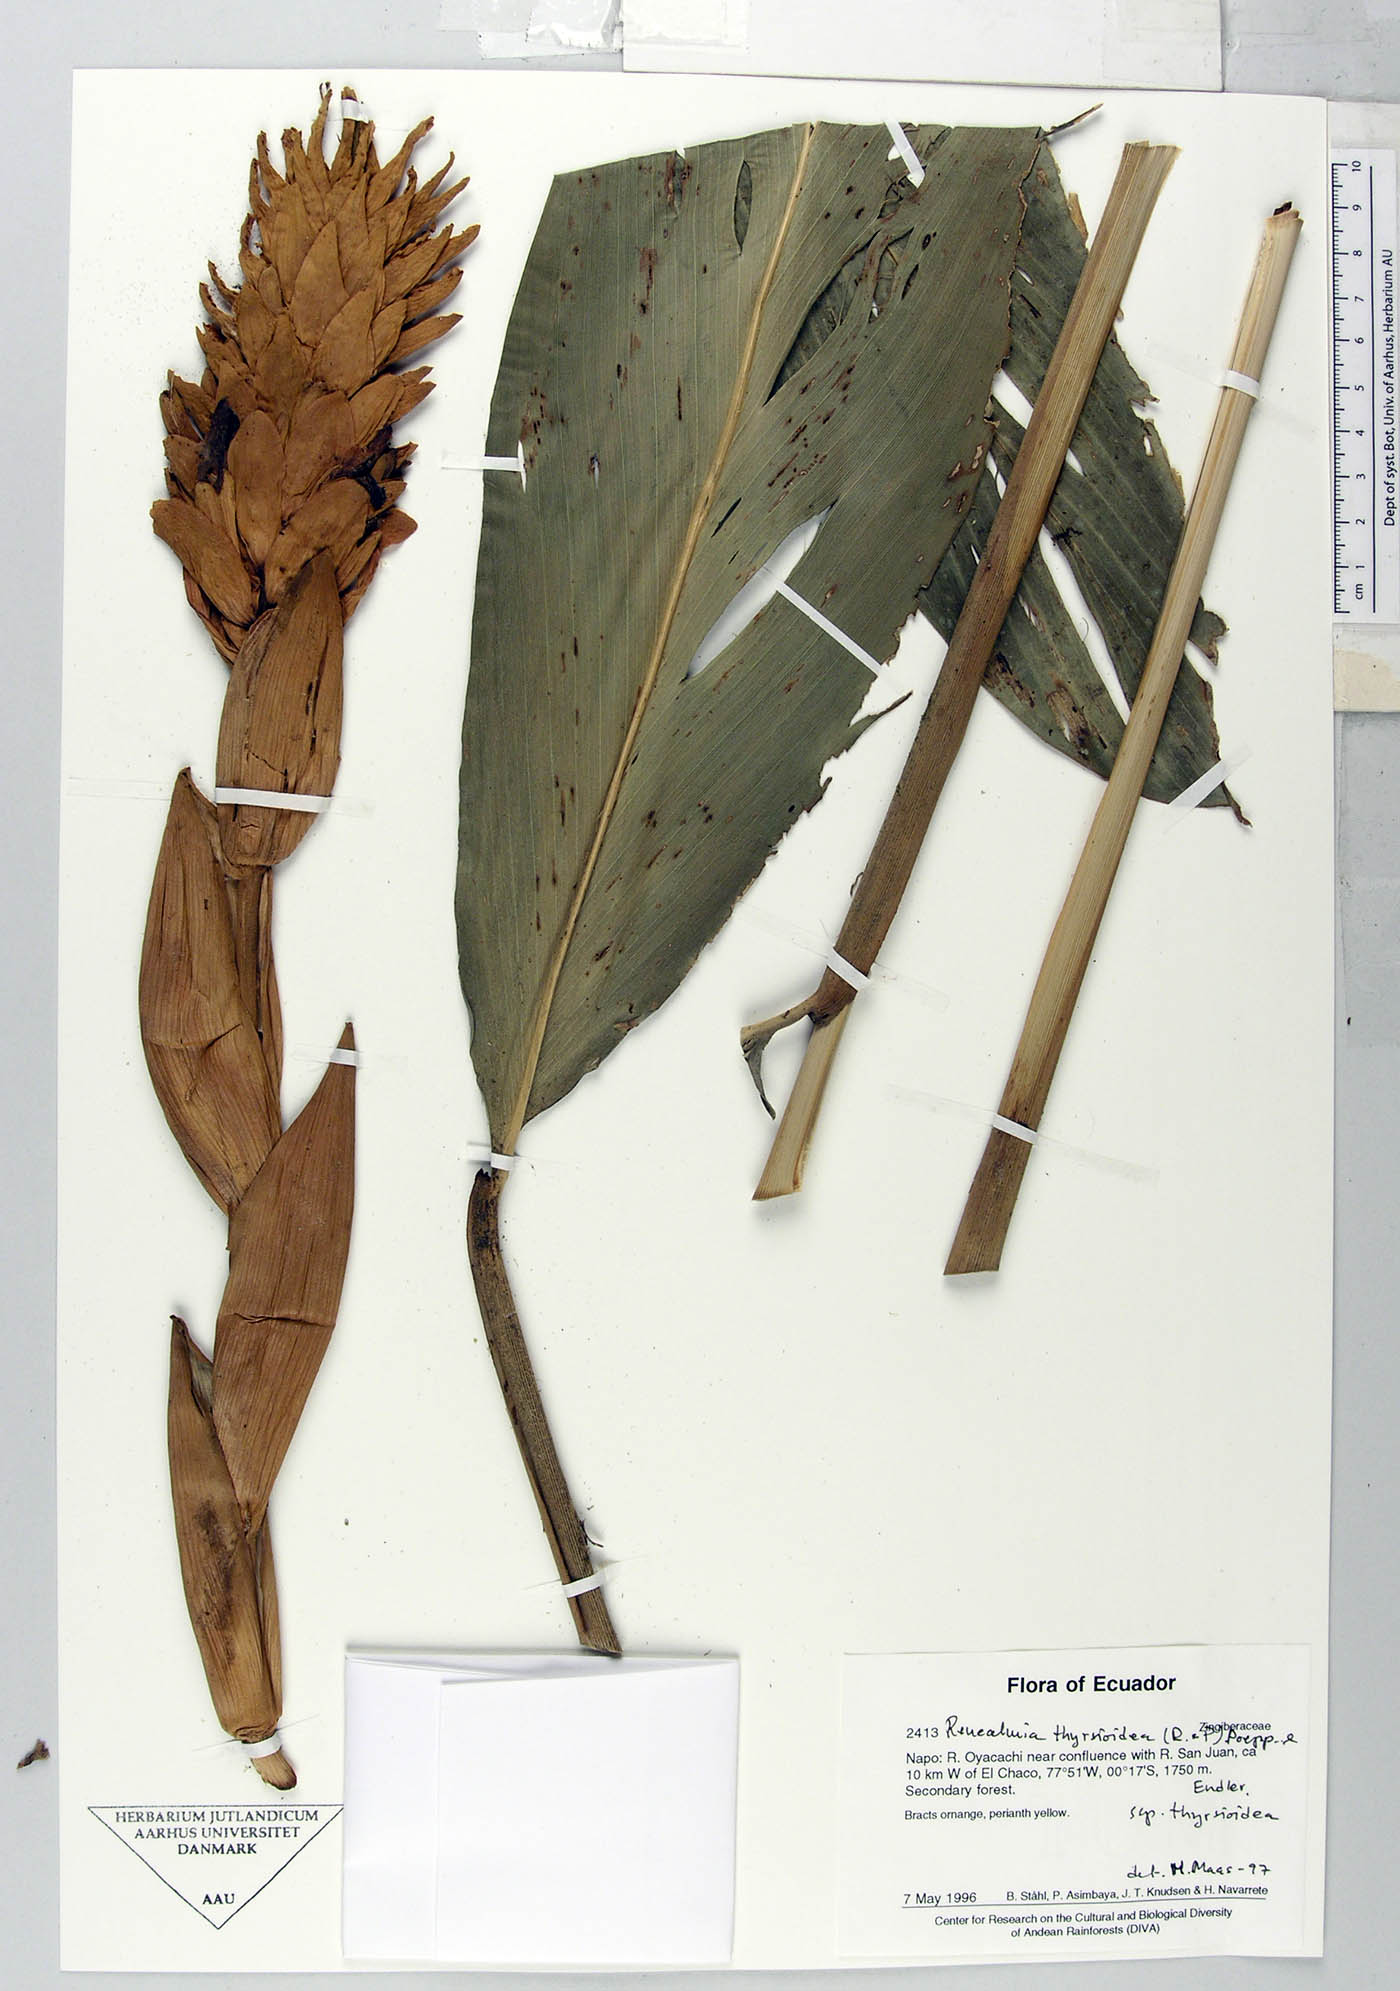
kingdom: Plantae
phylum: Tracheophyta
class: Liliopsida
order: Zingiberales
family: Zingiberaceae
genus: Renealmia
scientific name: Renealmia thyrsoidea
